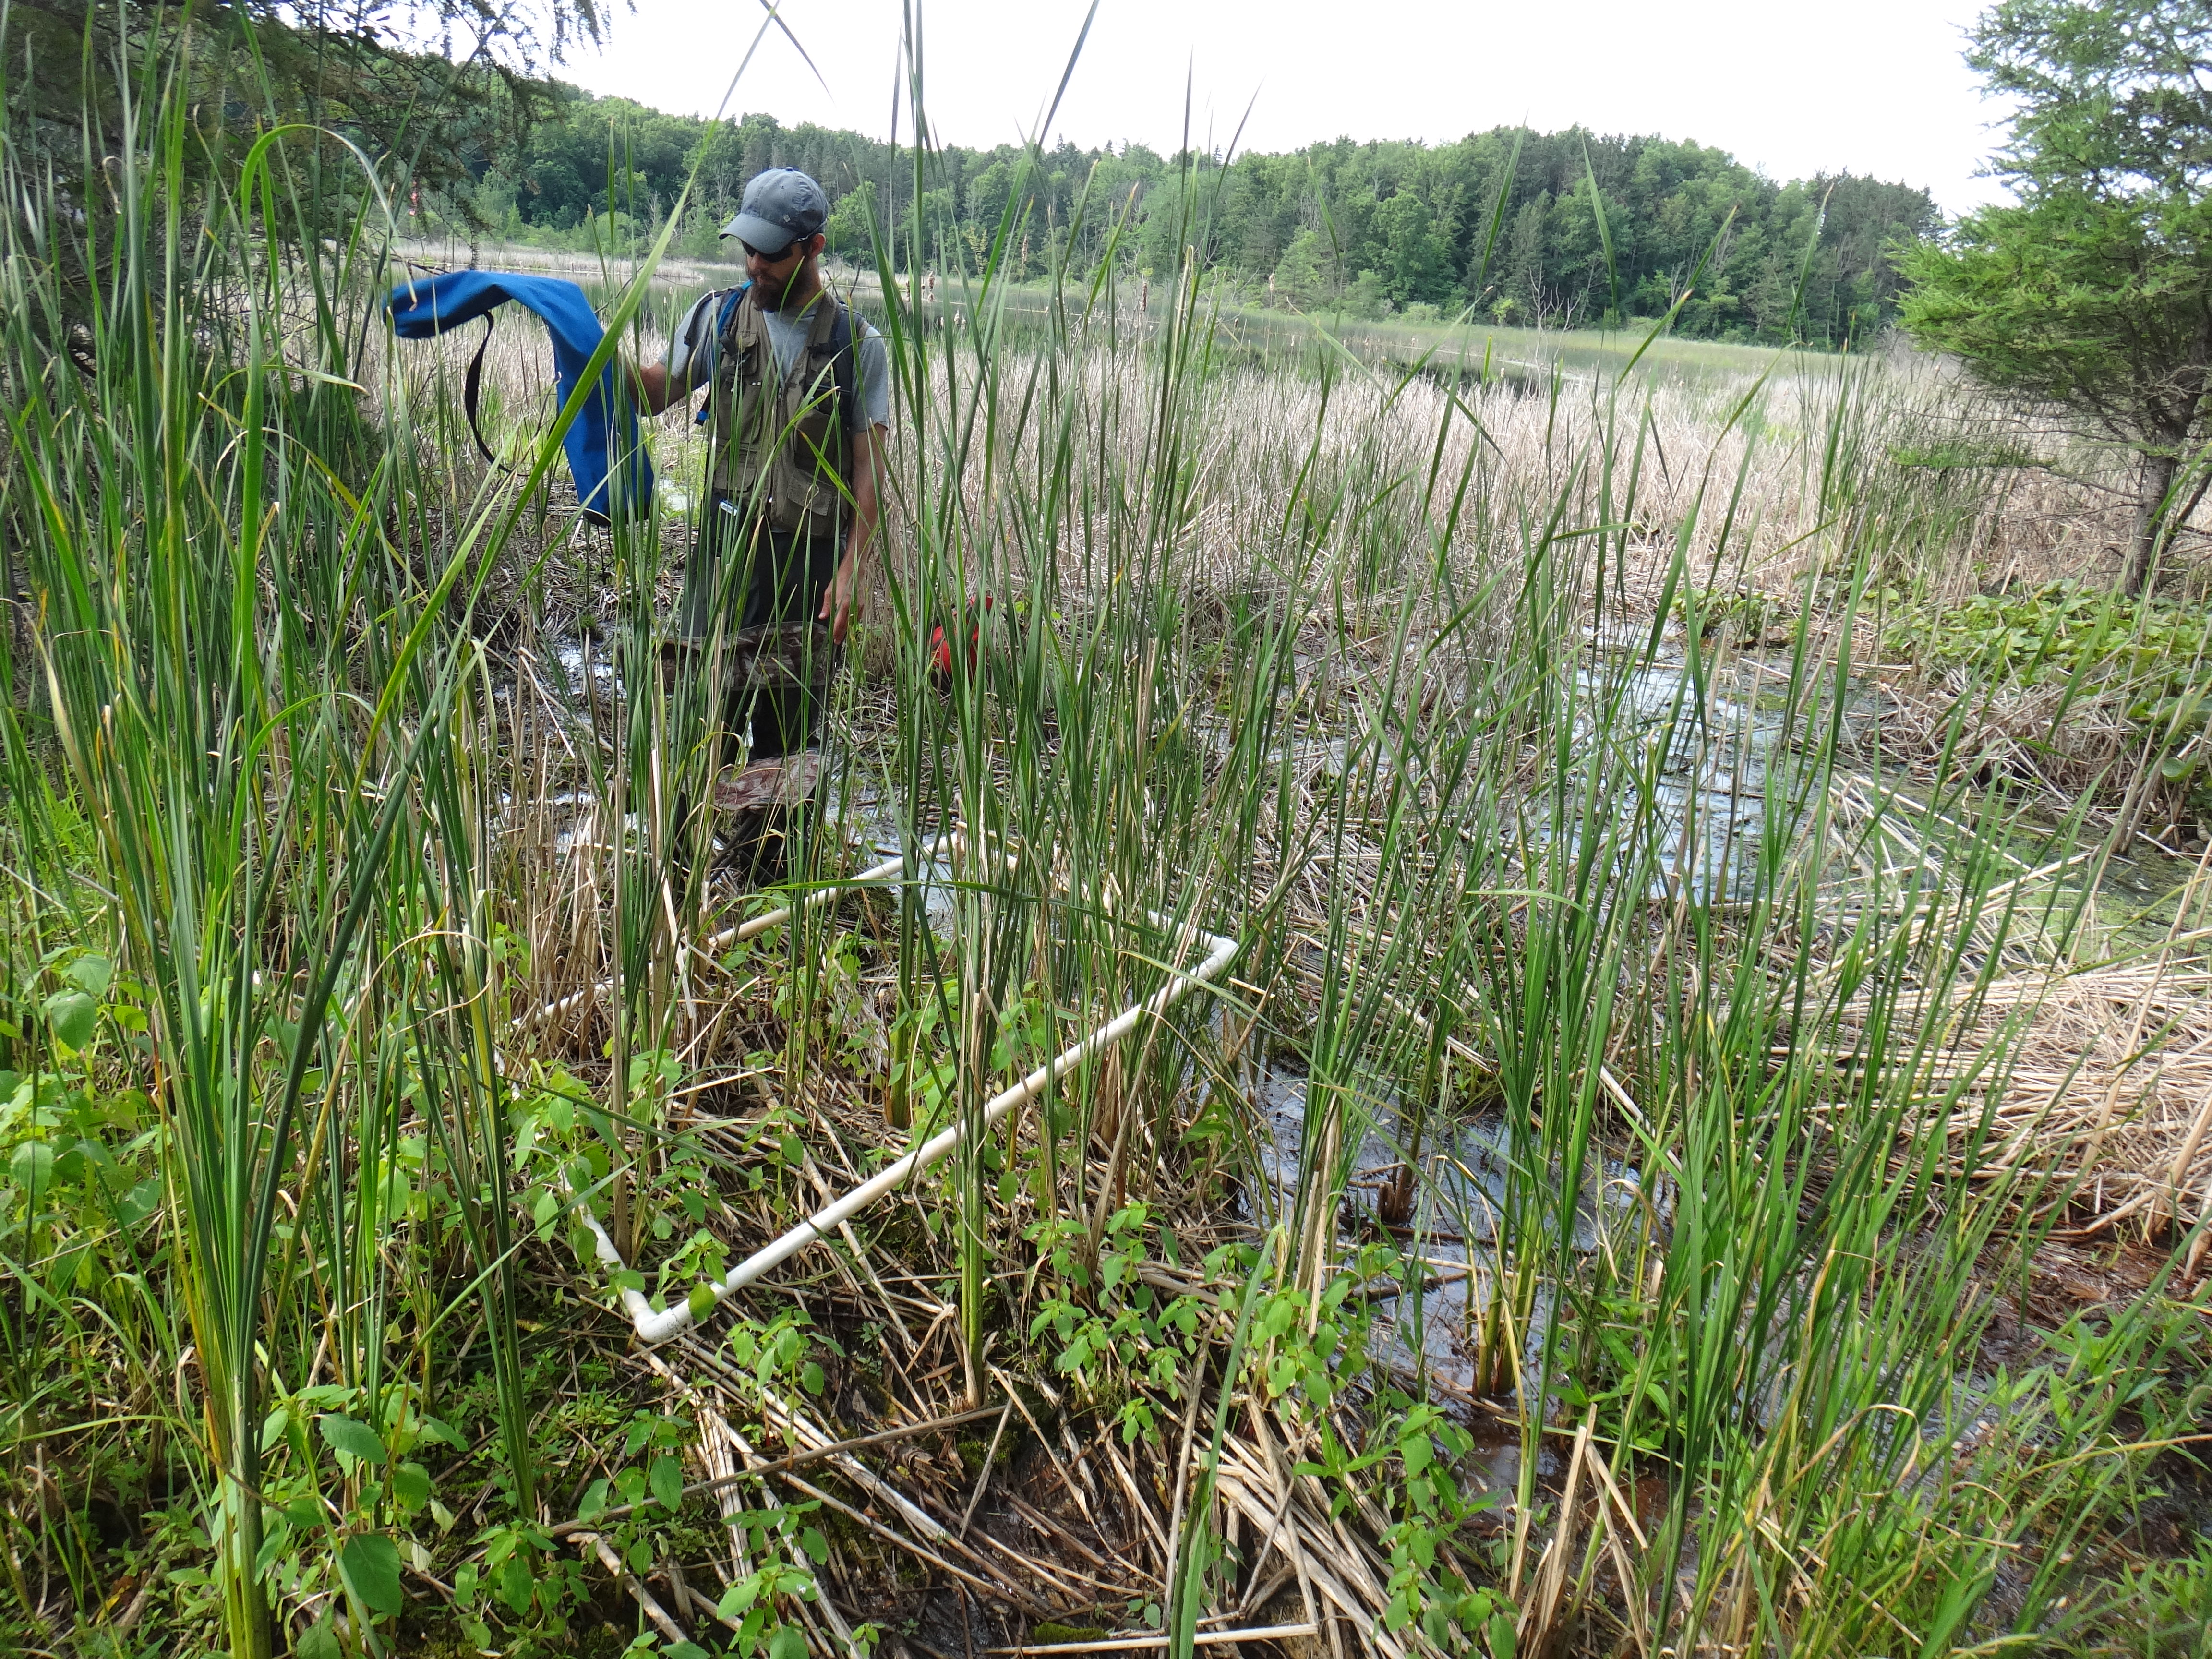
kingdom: Plantae
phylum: Tracheophyta
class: Magnoliopsida
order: Lamiales
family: Verbenaceae
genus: Verbena
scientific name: Verbena hastata
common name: American blue vervain
